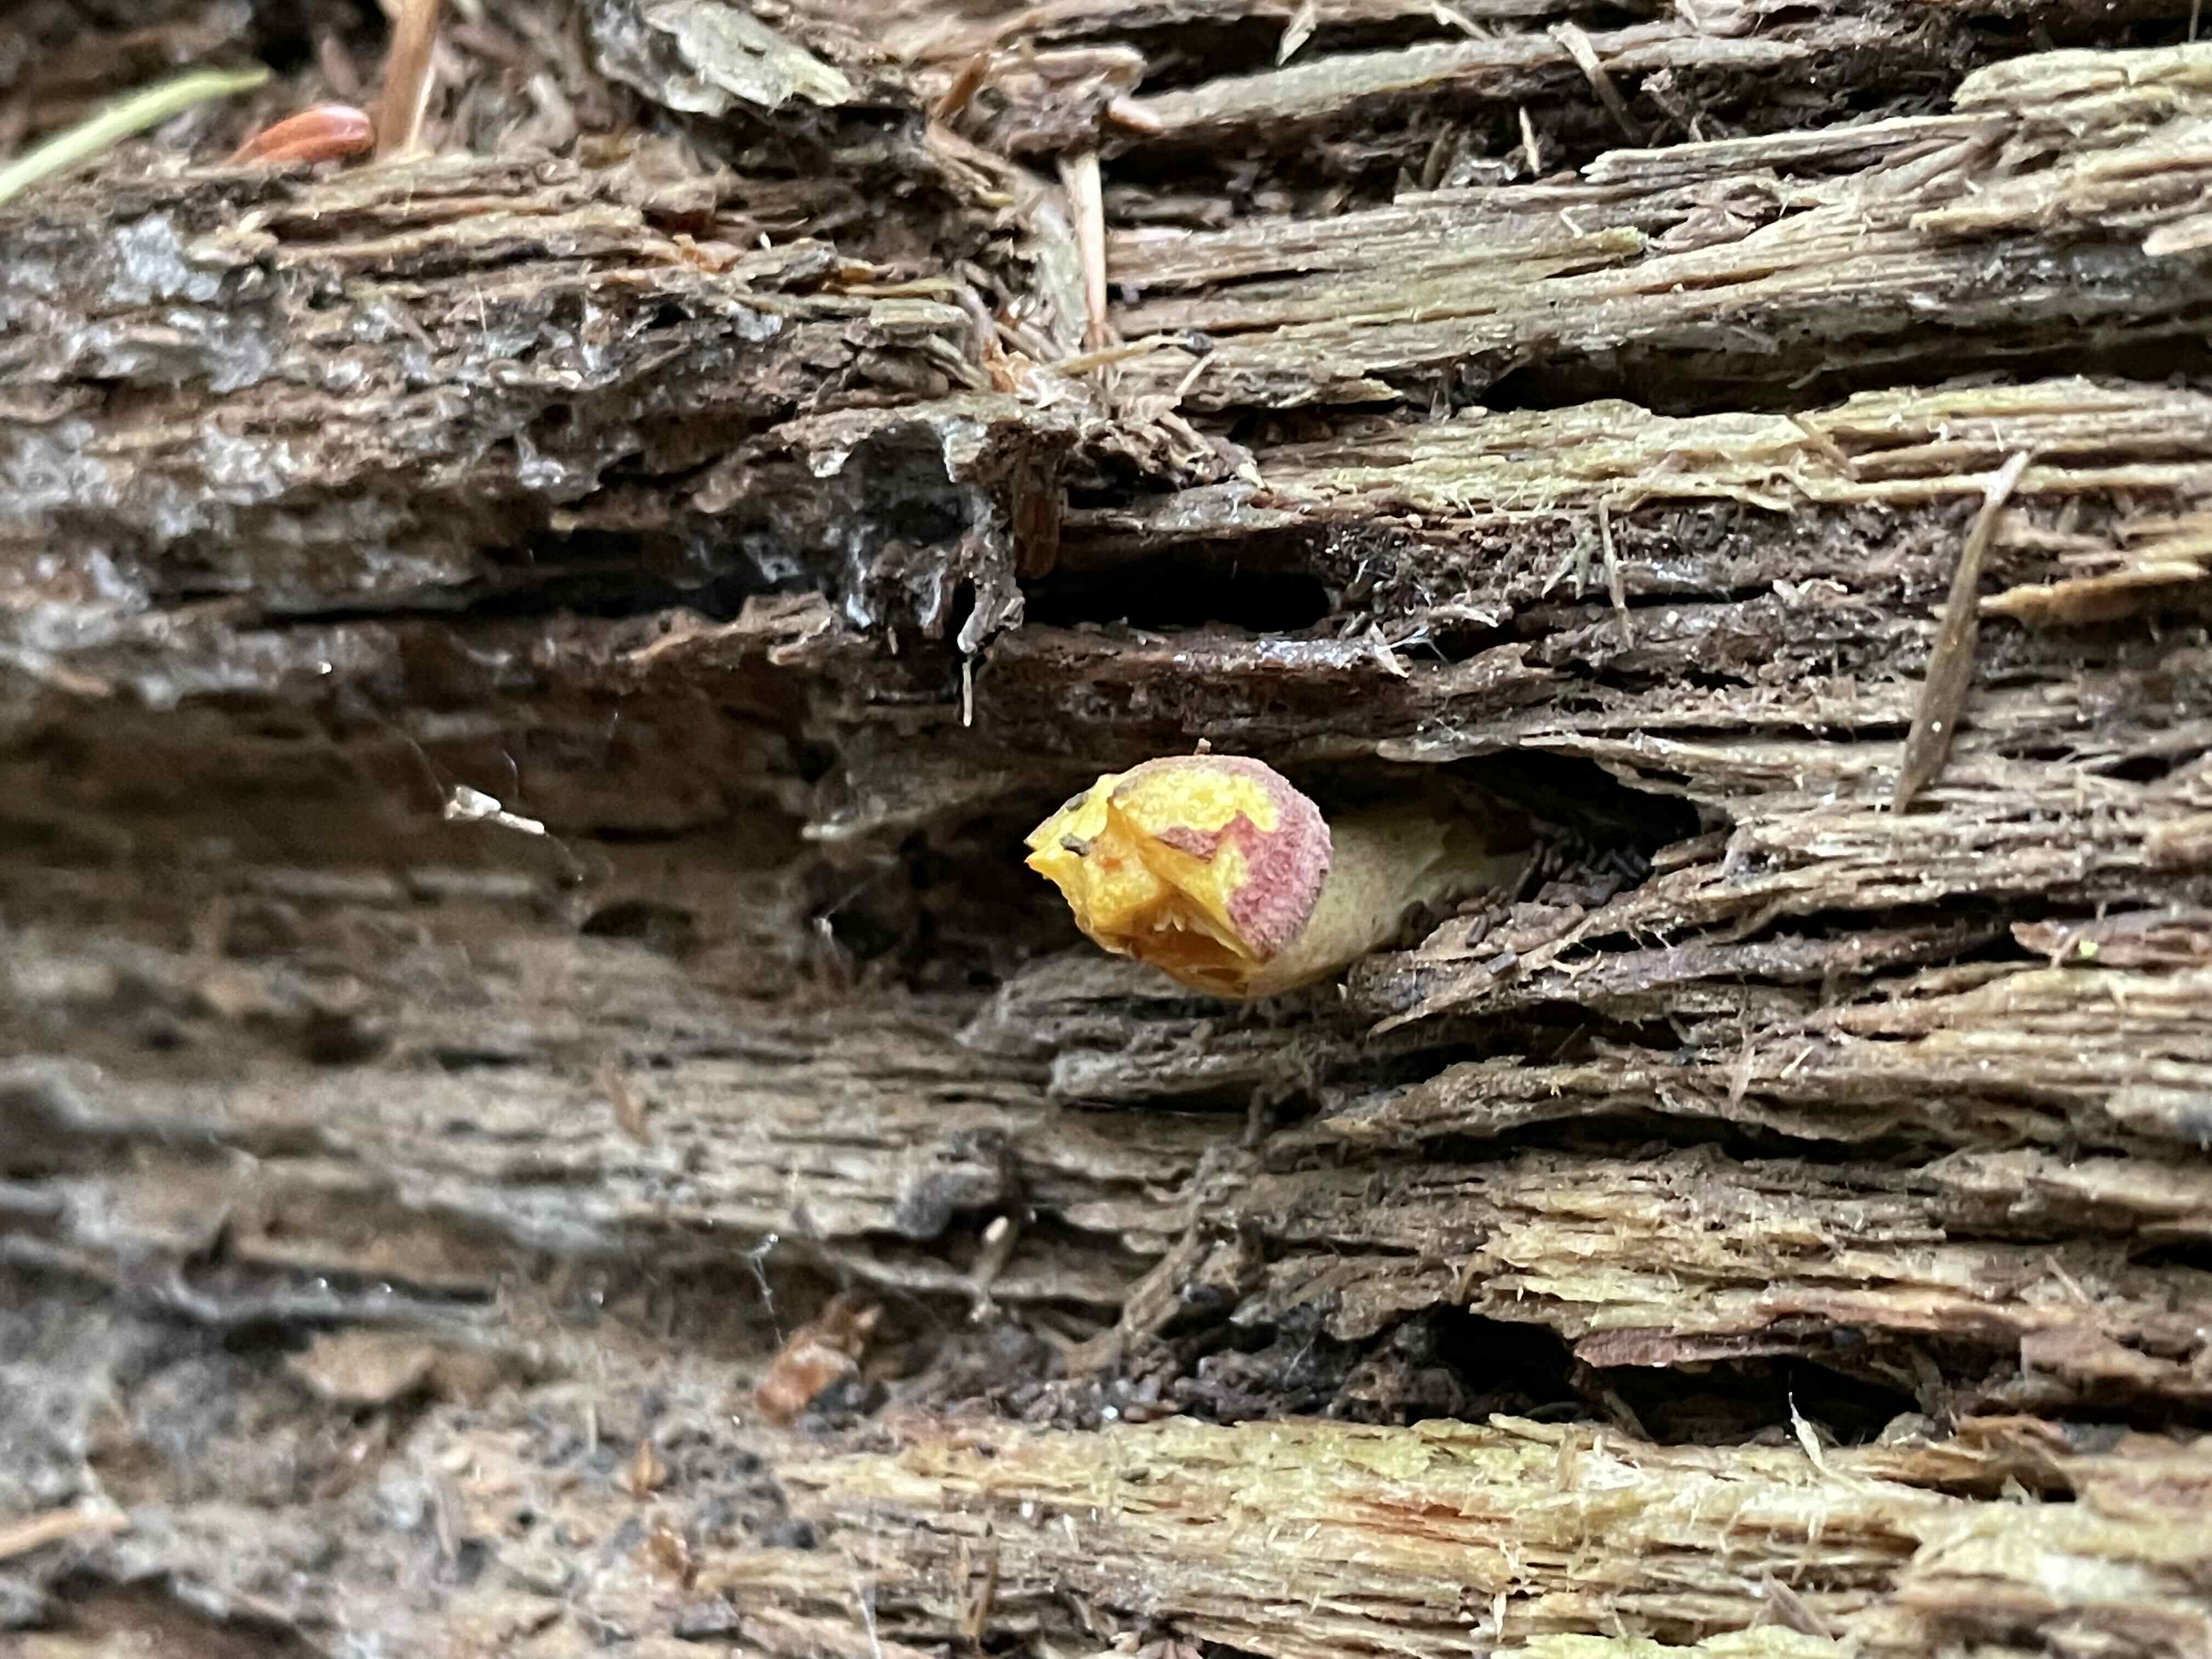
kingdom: Fungi
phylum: Basidiomycota
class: Agaricomycetes
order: Agaricales
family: Tricholomataceae
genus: Tricholomopsis
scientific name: Tricholomopsis rutilans
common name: purpur-væbnerhat
